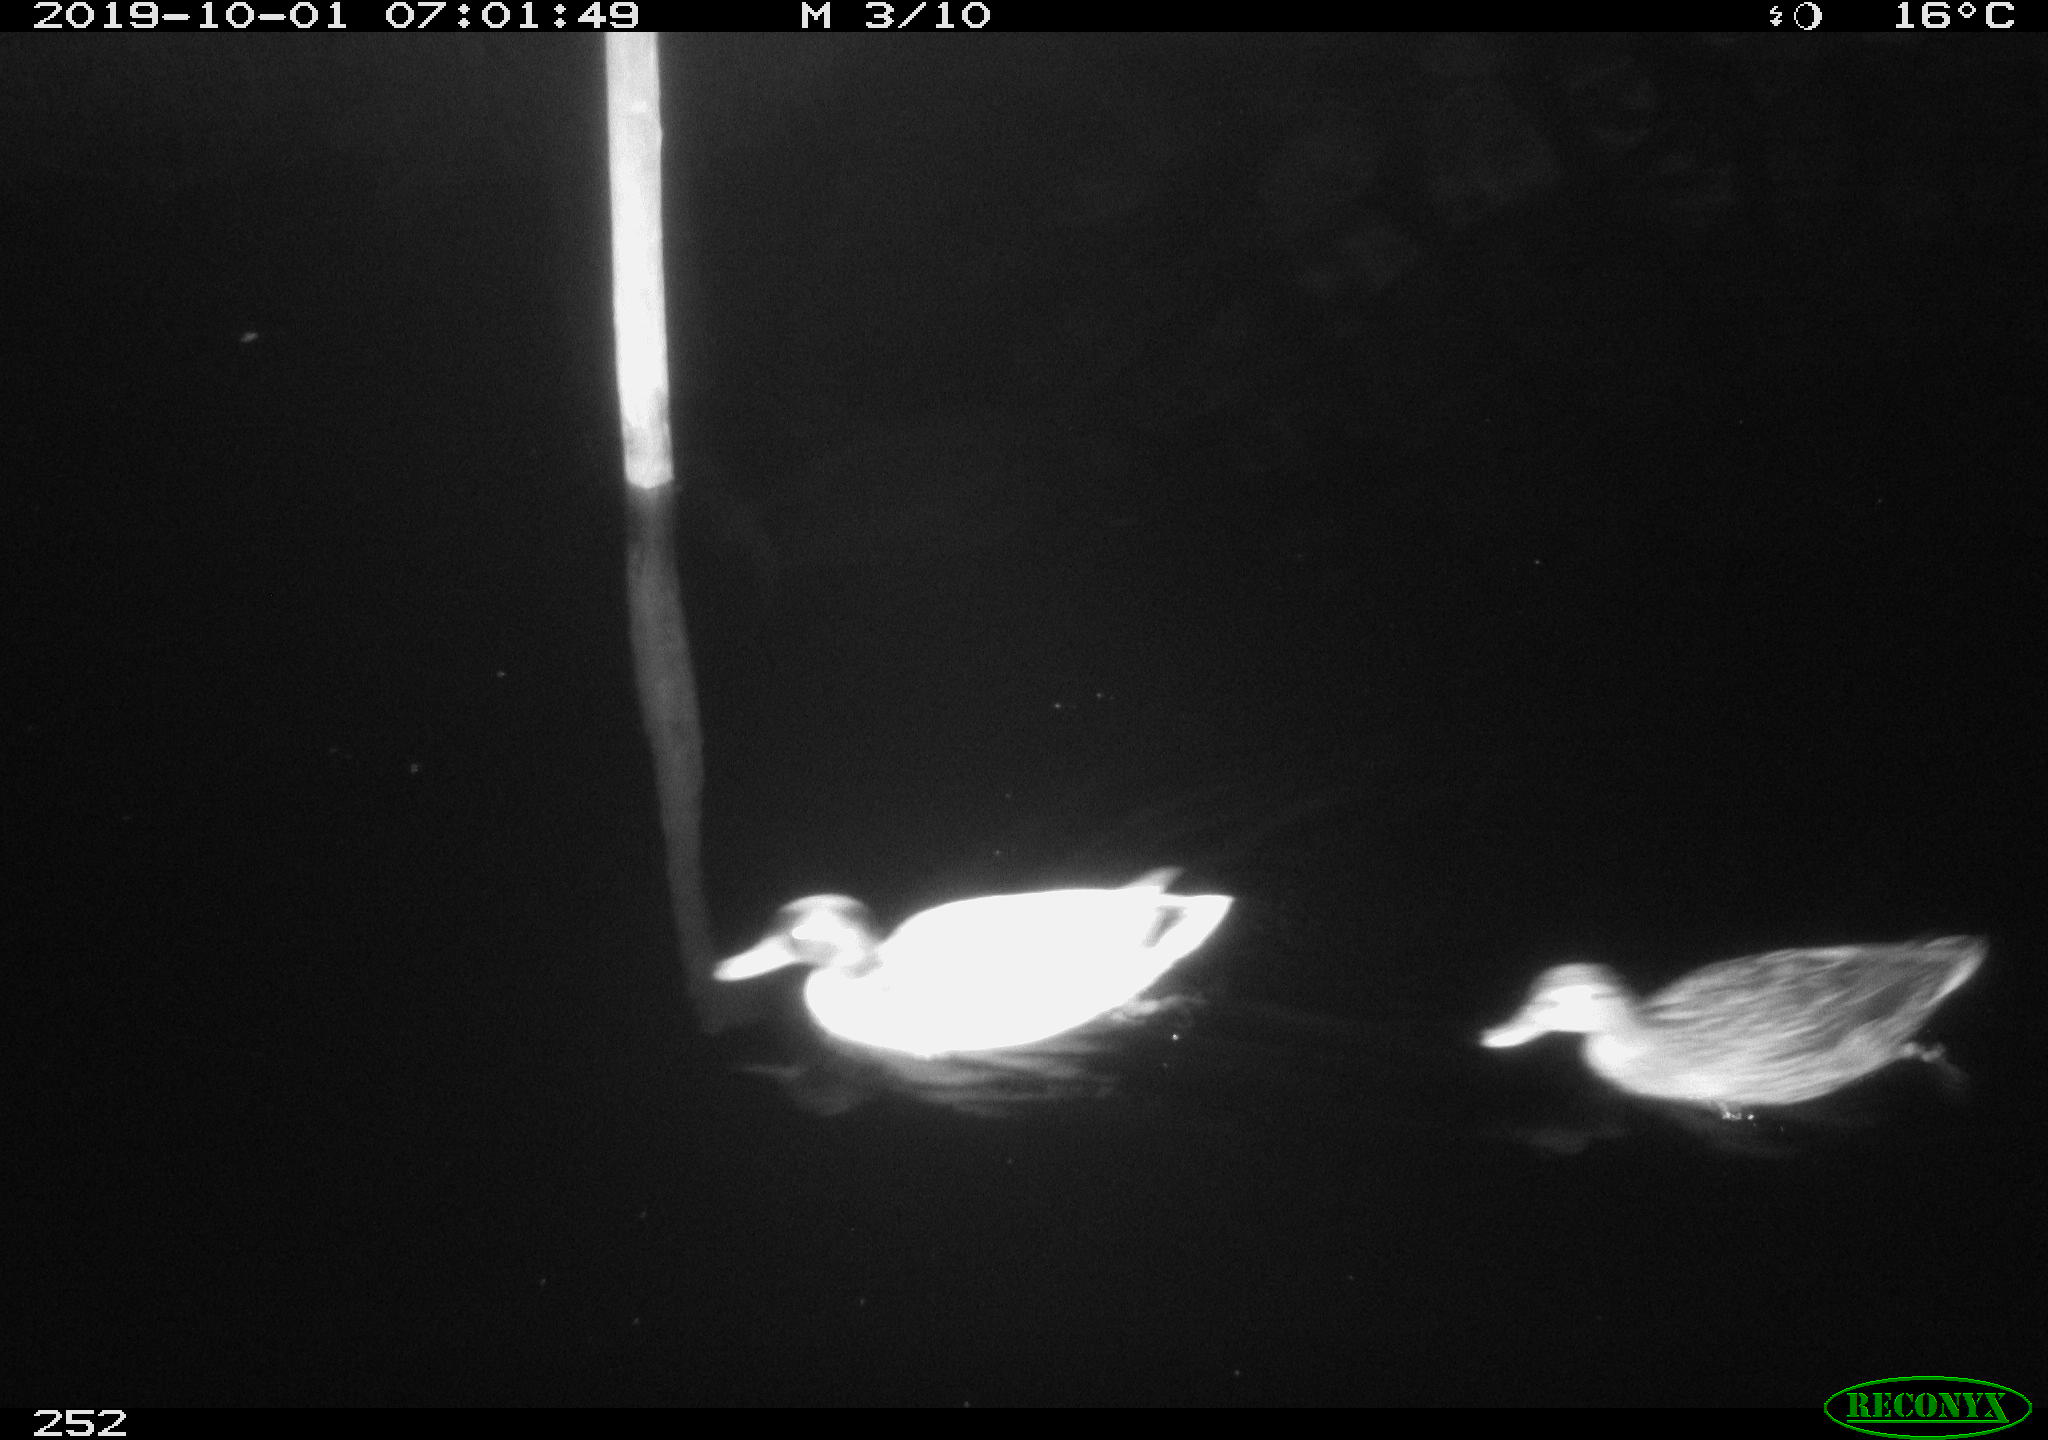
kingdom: Animalia
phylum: Chordata
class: Aves
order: Anseriformes
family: Anatidae
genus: Anas
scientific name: Anas platyrhynchos
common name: Mallard
